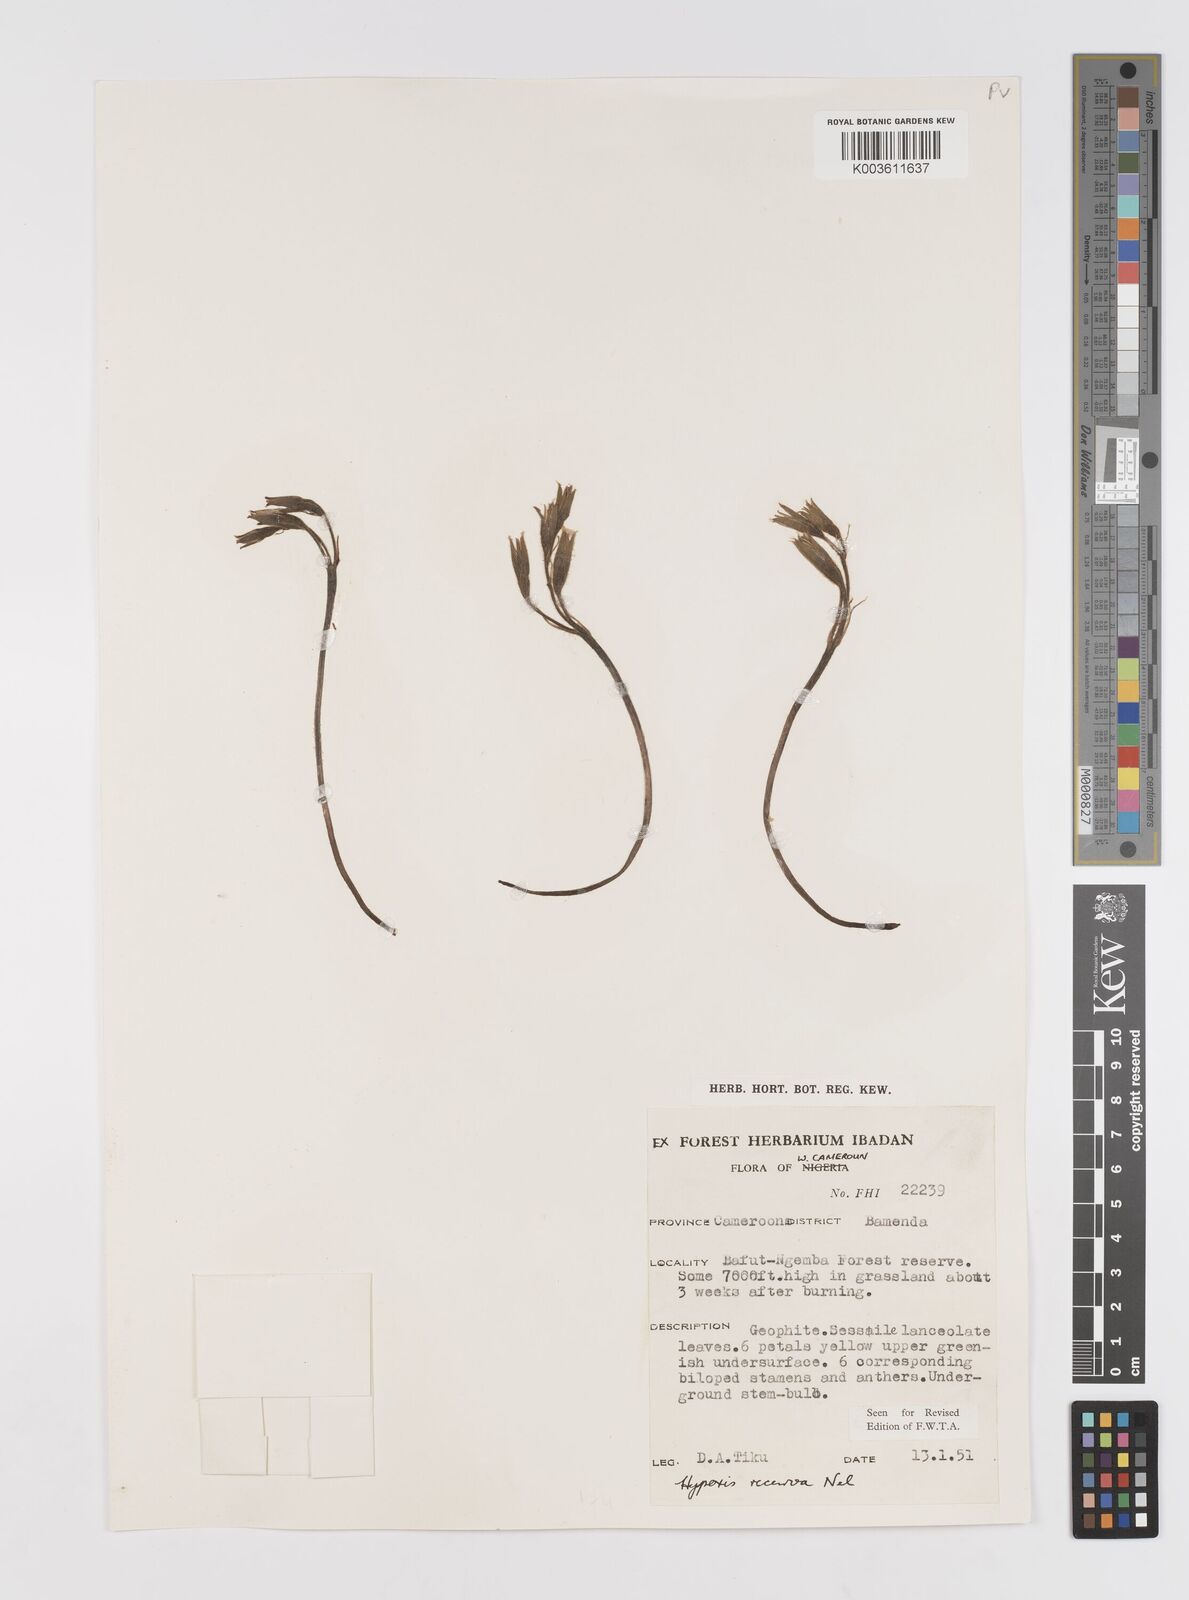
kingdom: Plantae
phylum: Tracheophyta
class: Liliopsida
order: Asparagales
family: Hypoxidaceae
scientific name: Hypoxidaceae
